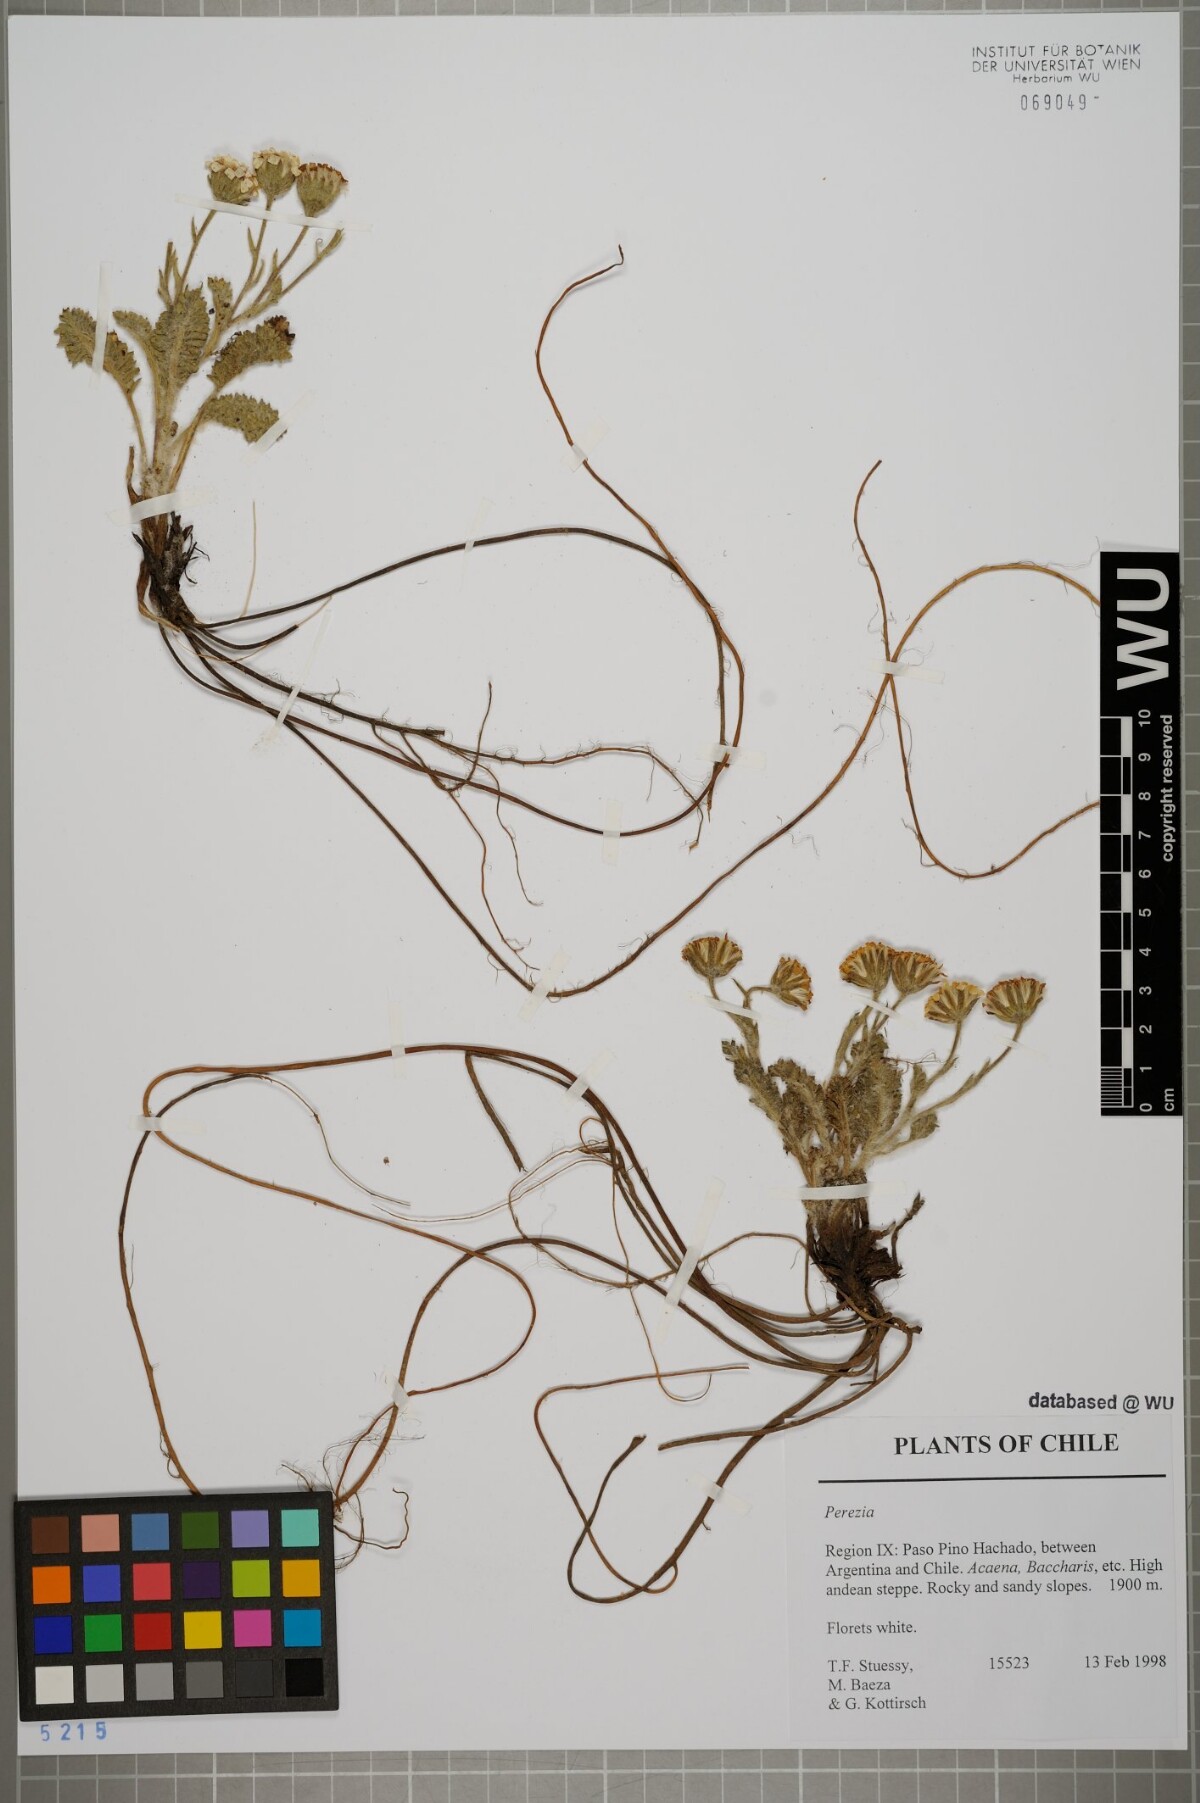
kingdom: Plantae
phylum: Tracheophyta
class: Magnoliopsida
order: Asterales
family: Asteraceae
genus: Perezia
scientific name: Perezia
